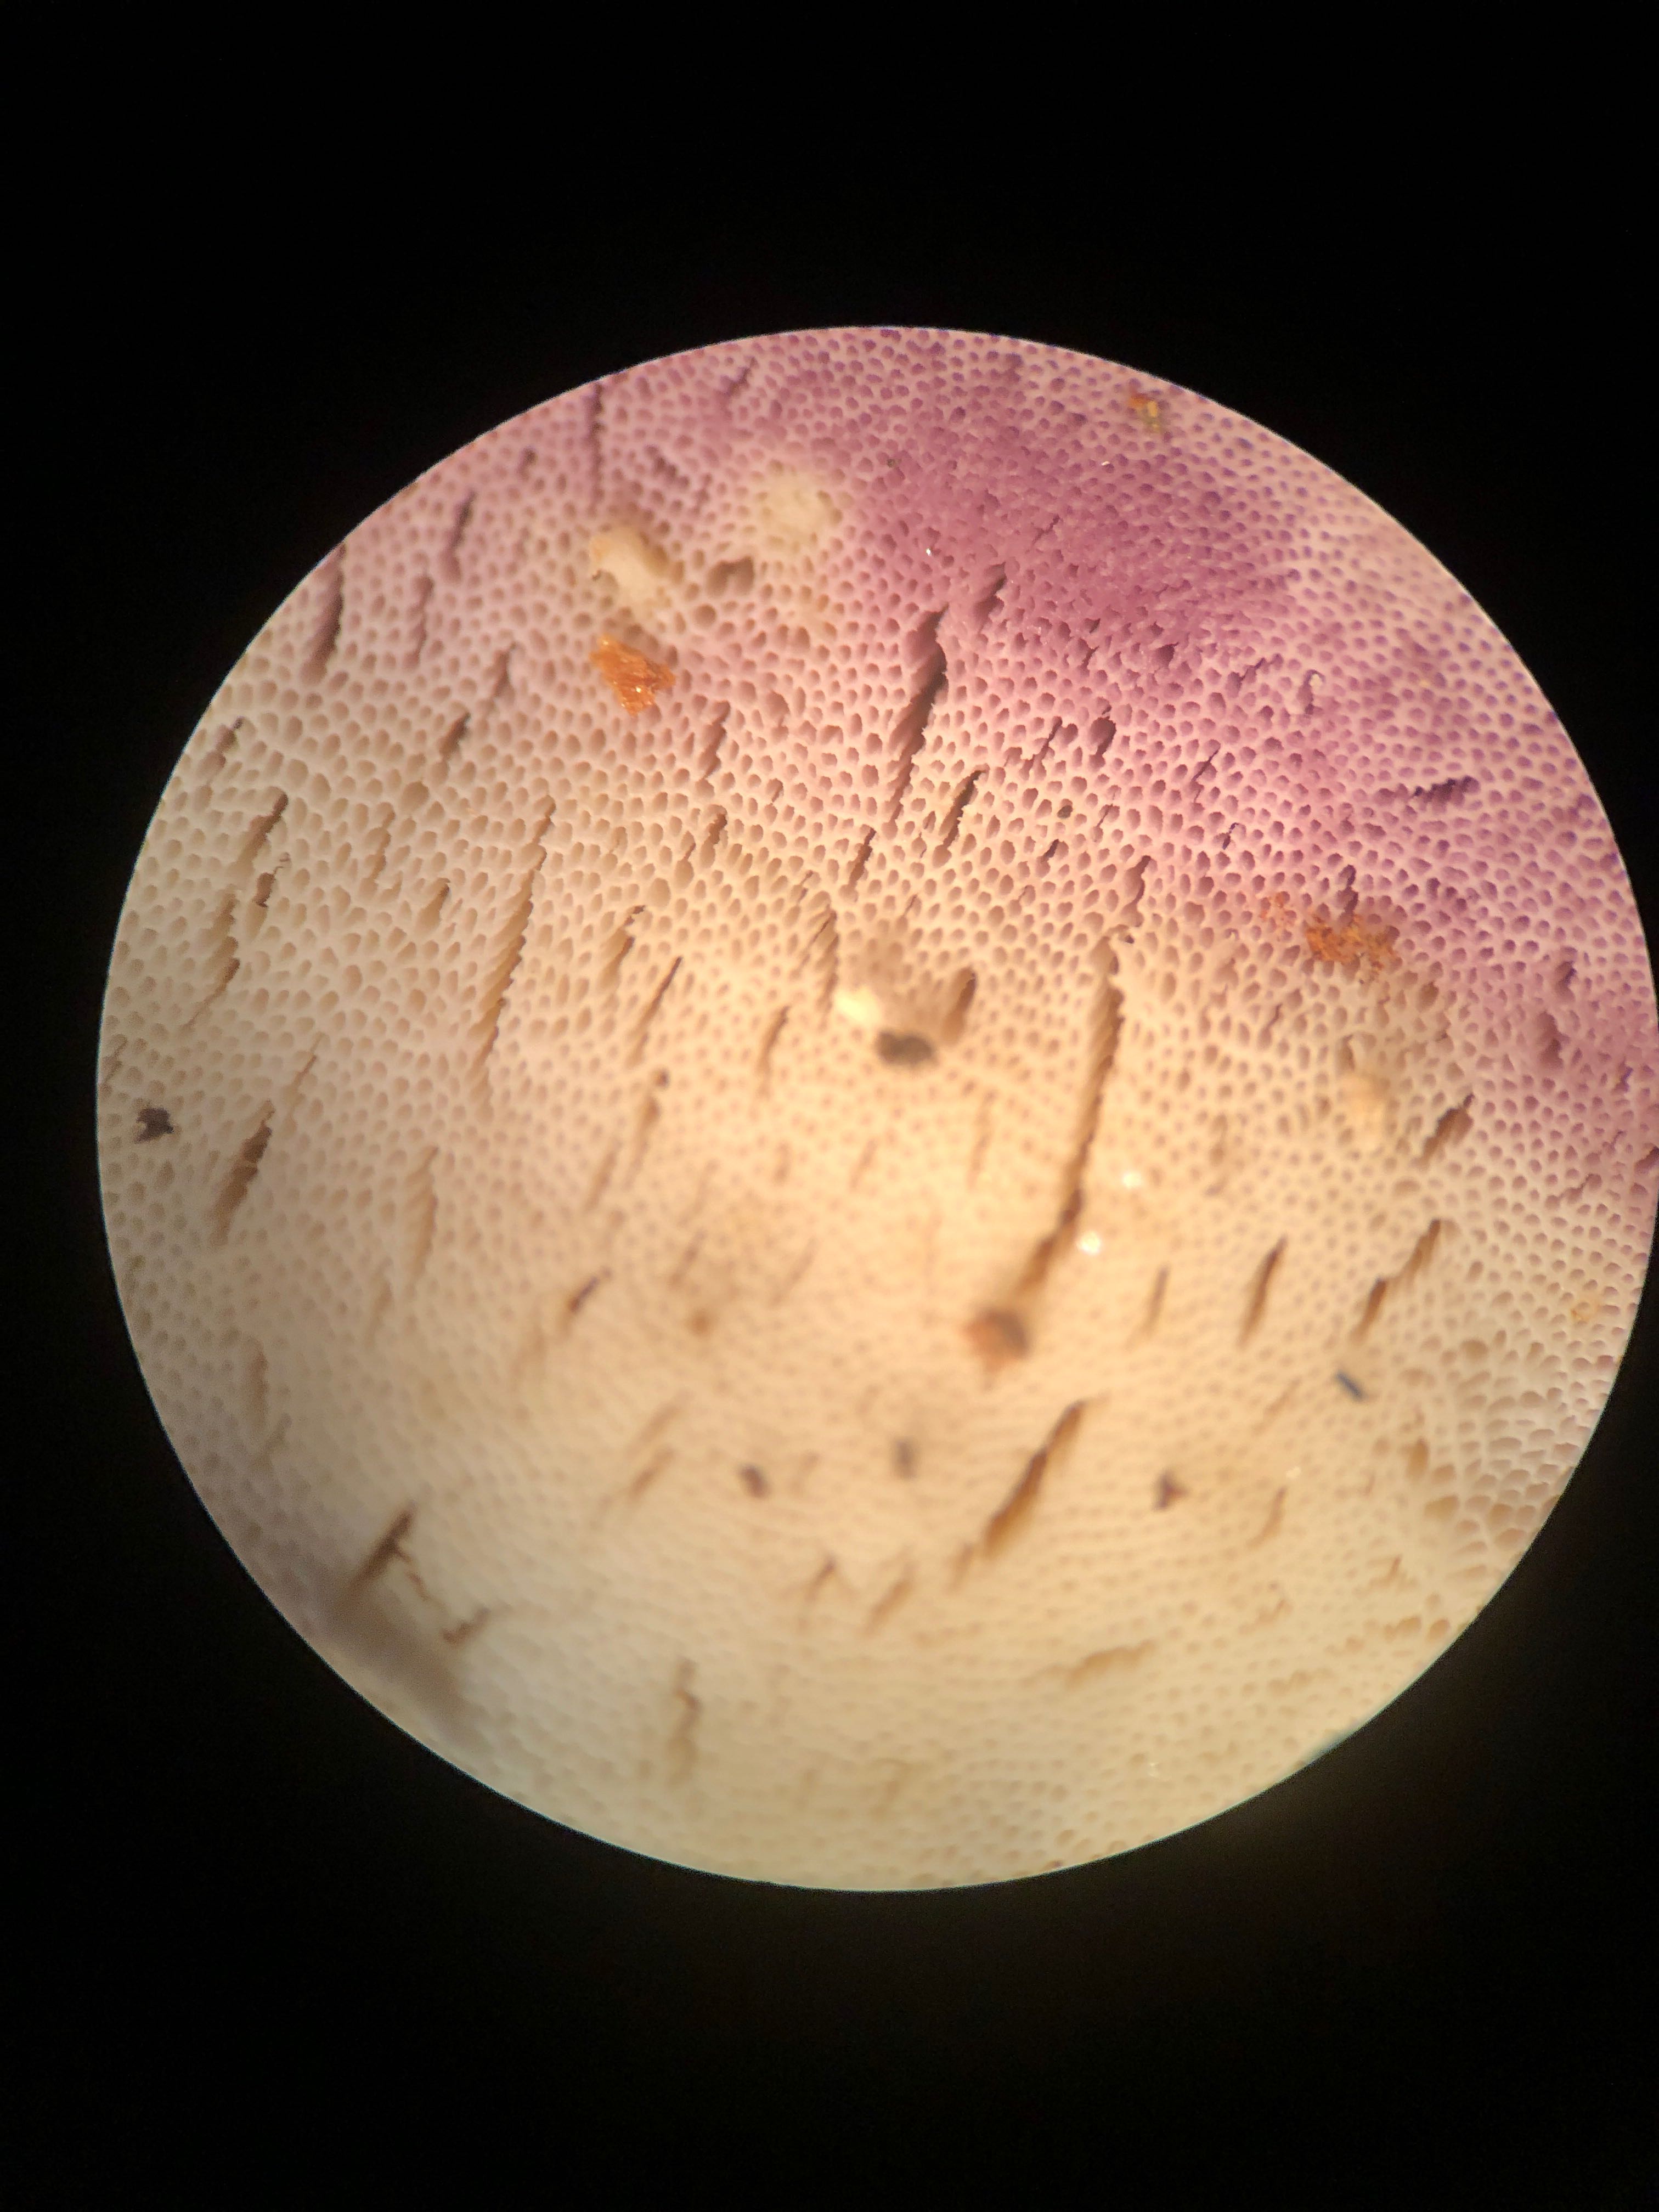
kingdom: Fungi
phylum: Basidiomycota
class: Agaricomycetes
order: Polyporales
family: Incrustoporiaceae
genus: Skeletocutis
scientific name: Skeletocutis nemoralis
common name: stor krystalporesvamp
